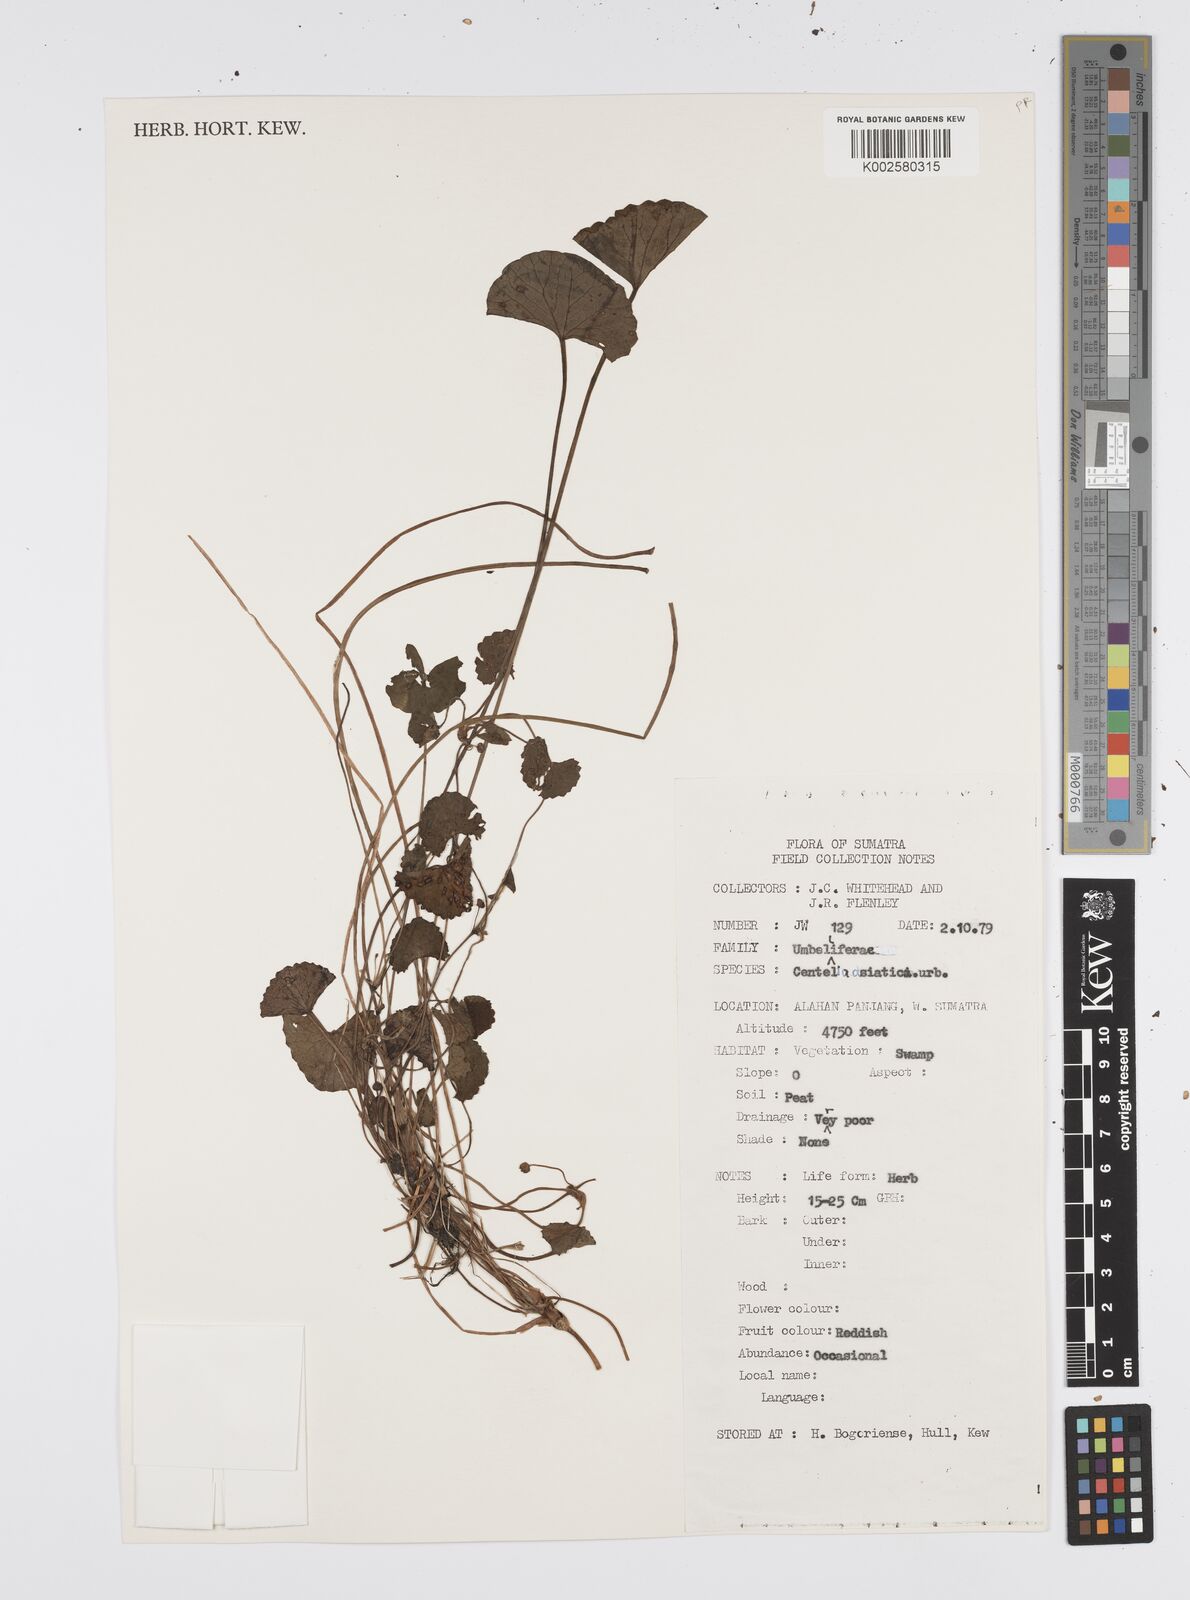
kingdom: Plantae
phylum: Tracheophyta
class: Magnoliopsida
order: Apiales
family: Apiaceae
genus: Centella
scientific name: Centella asiatica
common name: Spadeleaf
